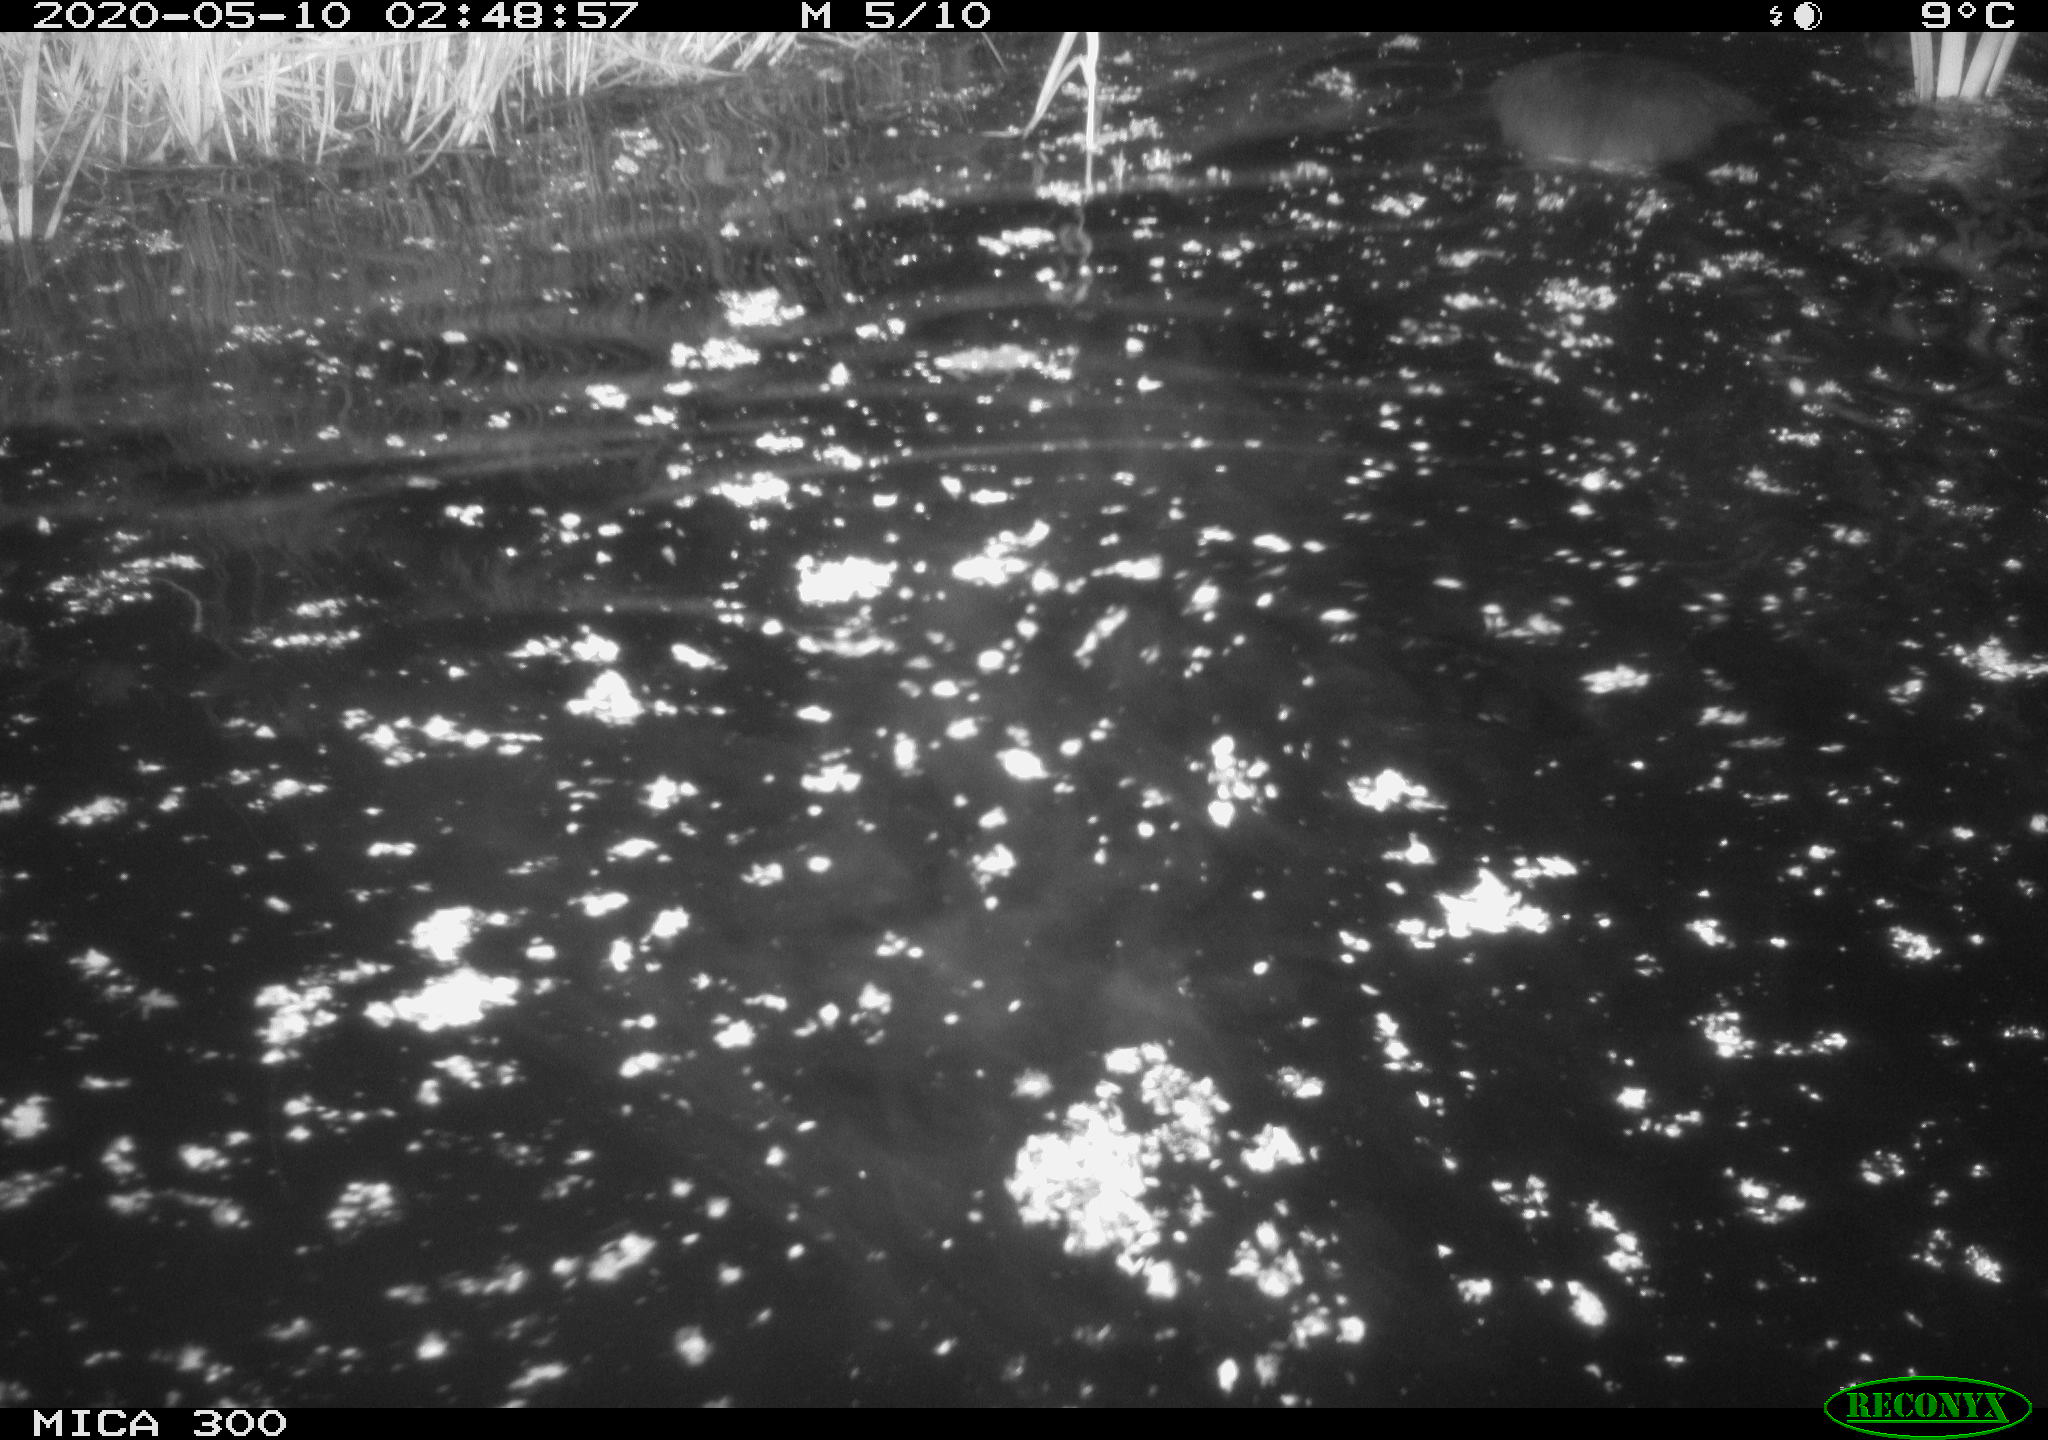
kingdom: Animalia
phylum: Chordata
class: Mammalia
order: Rodentia
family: Castoridae
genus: Castor
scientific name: Castor fiber
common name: Eurasian beaver
